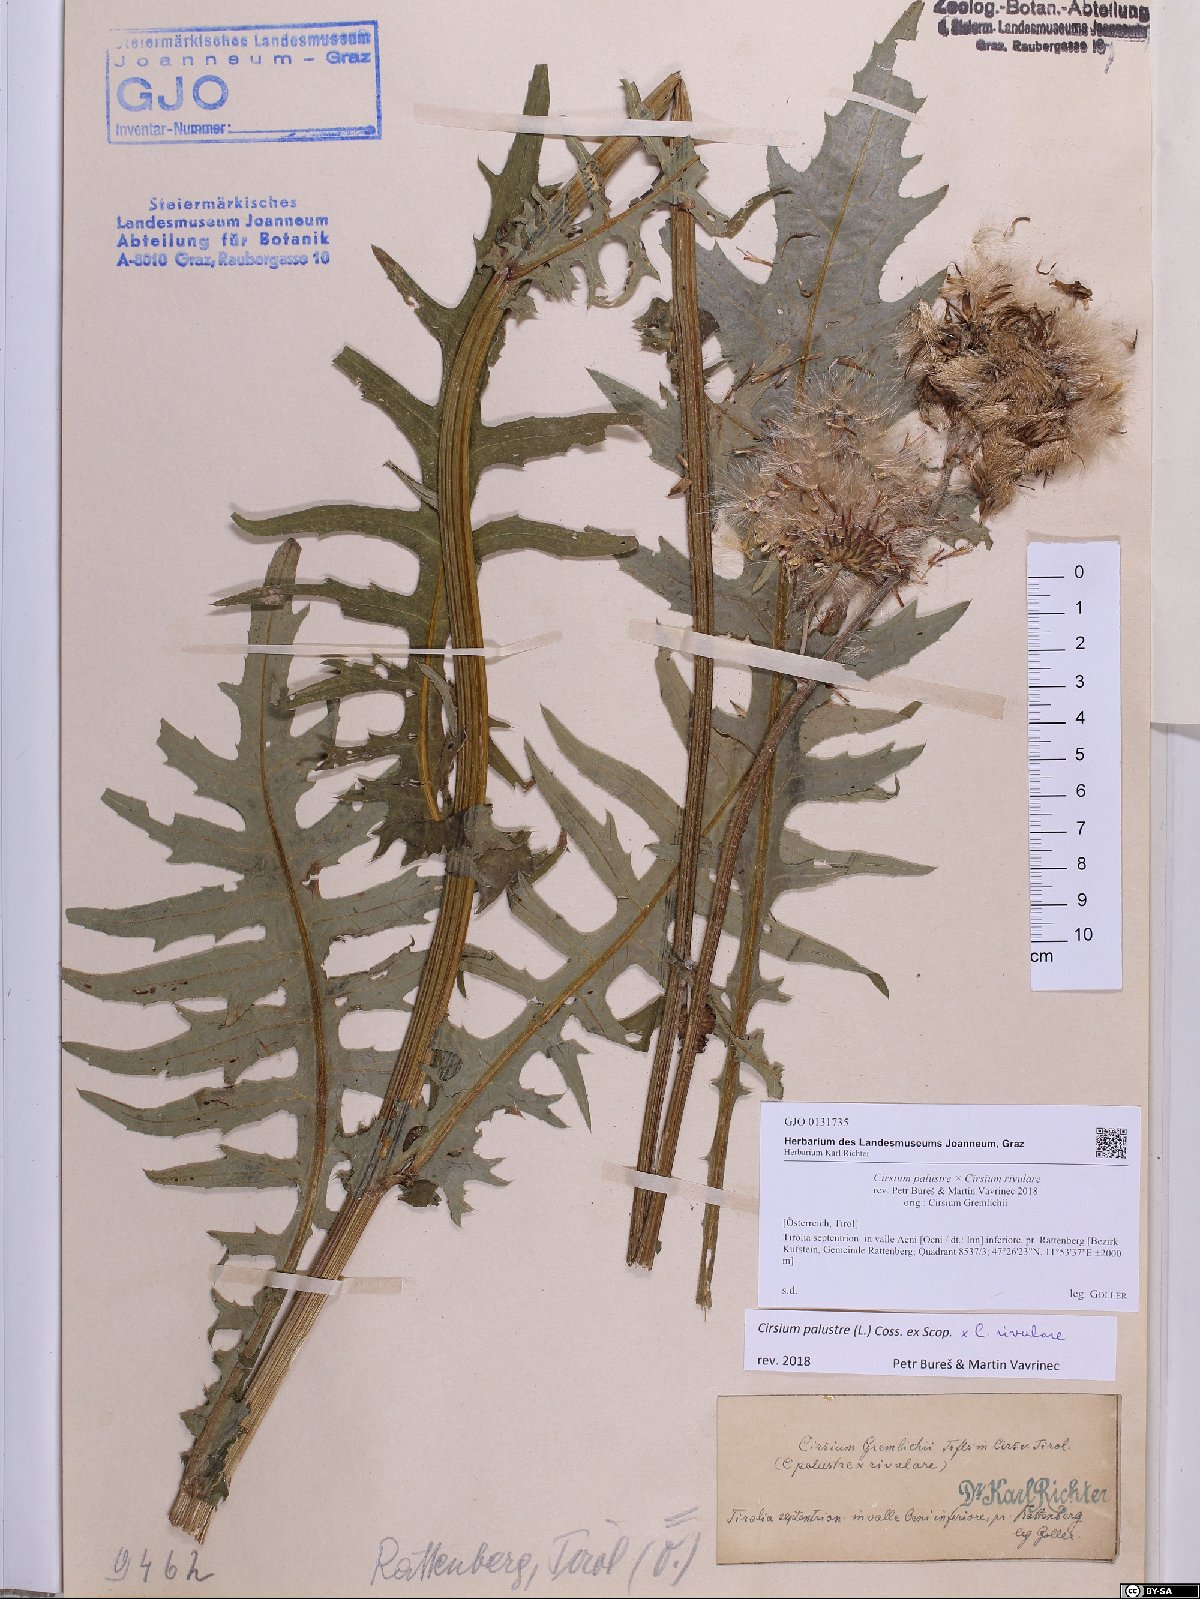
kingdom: Plantae
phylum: Tracheophyta
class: Magnoliopsida
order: Asterales
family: Asteraceae
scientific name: Asteraceae
